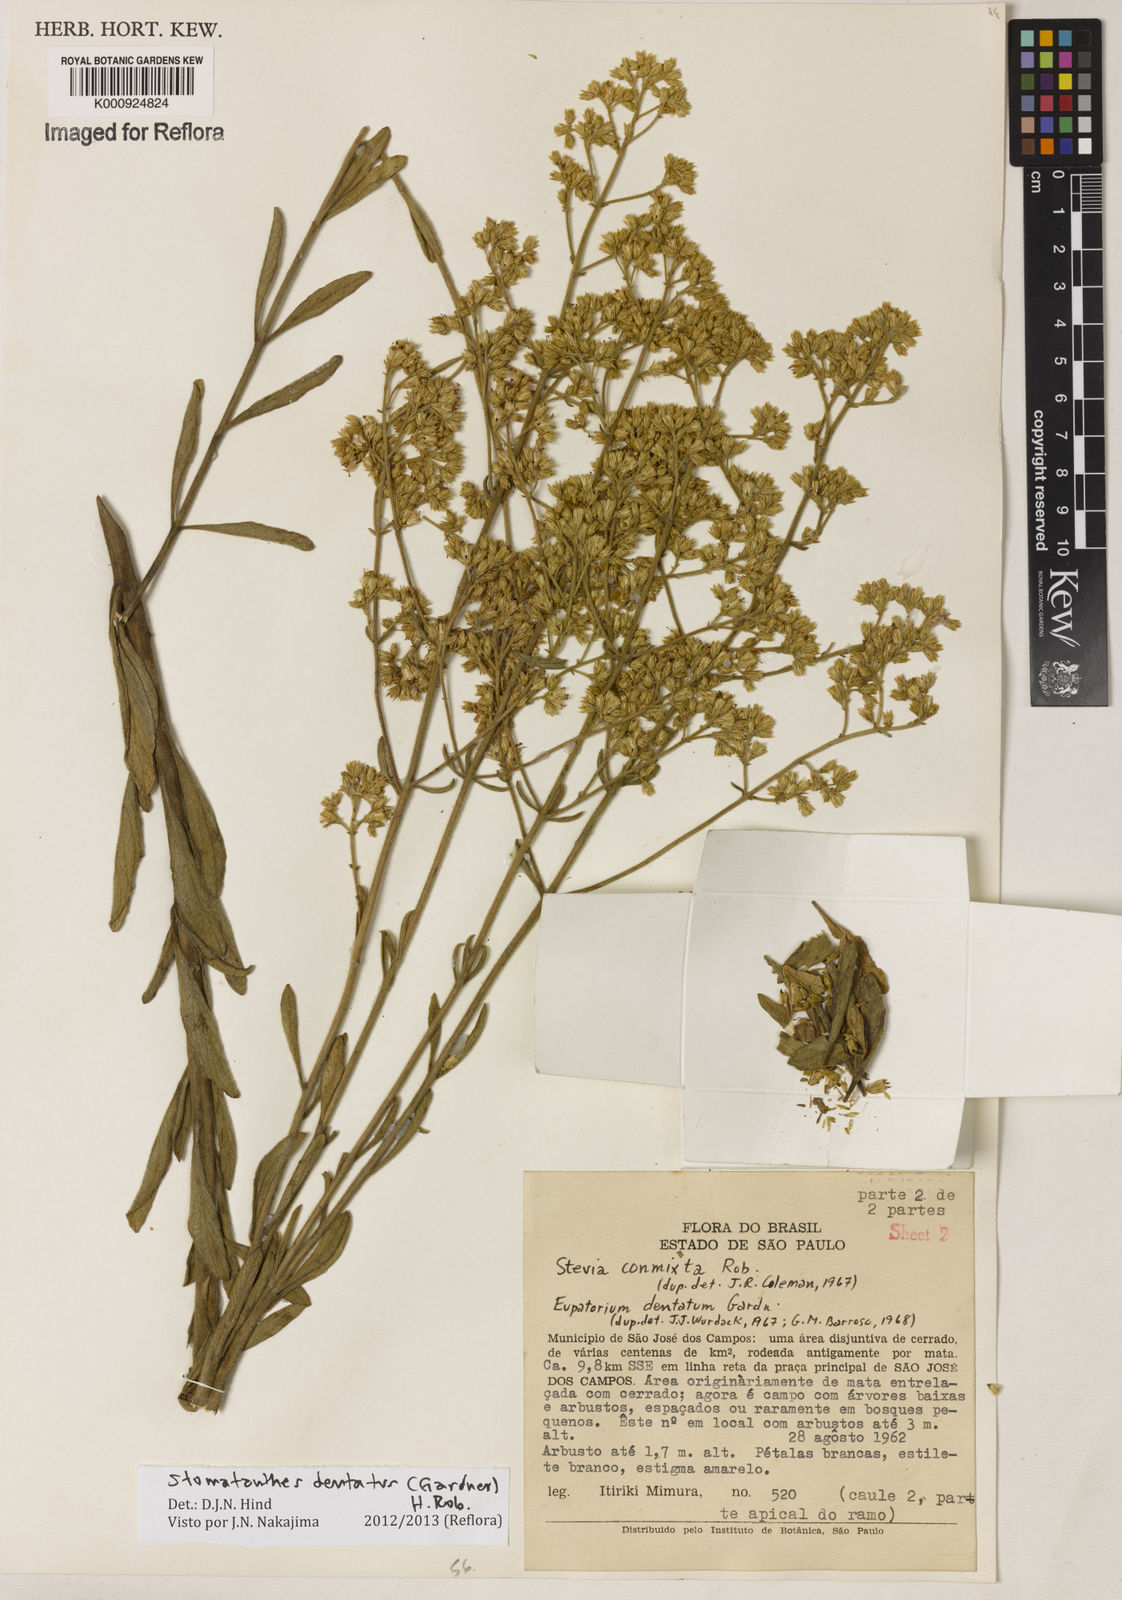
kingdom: Plantae
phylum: Tracheophyta
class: Magnoliopsida
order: Asterales
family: Asteraceae
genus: Stomatanthes
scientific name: Stomatanthes dentatus
